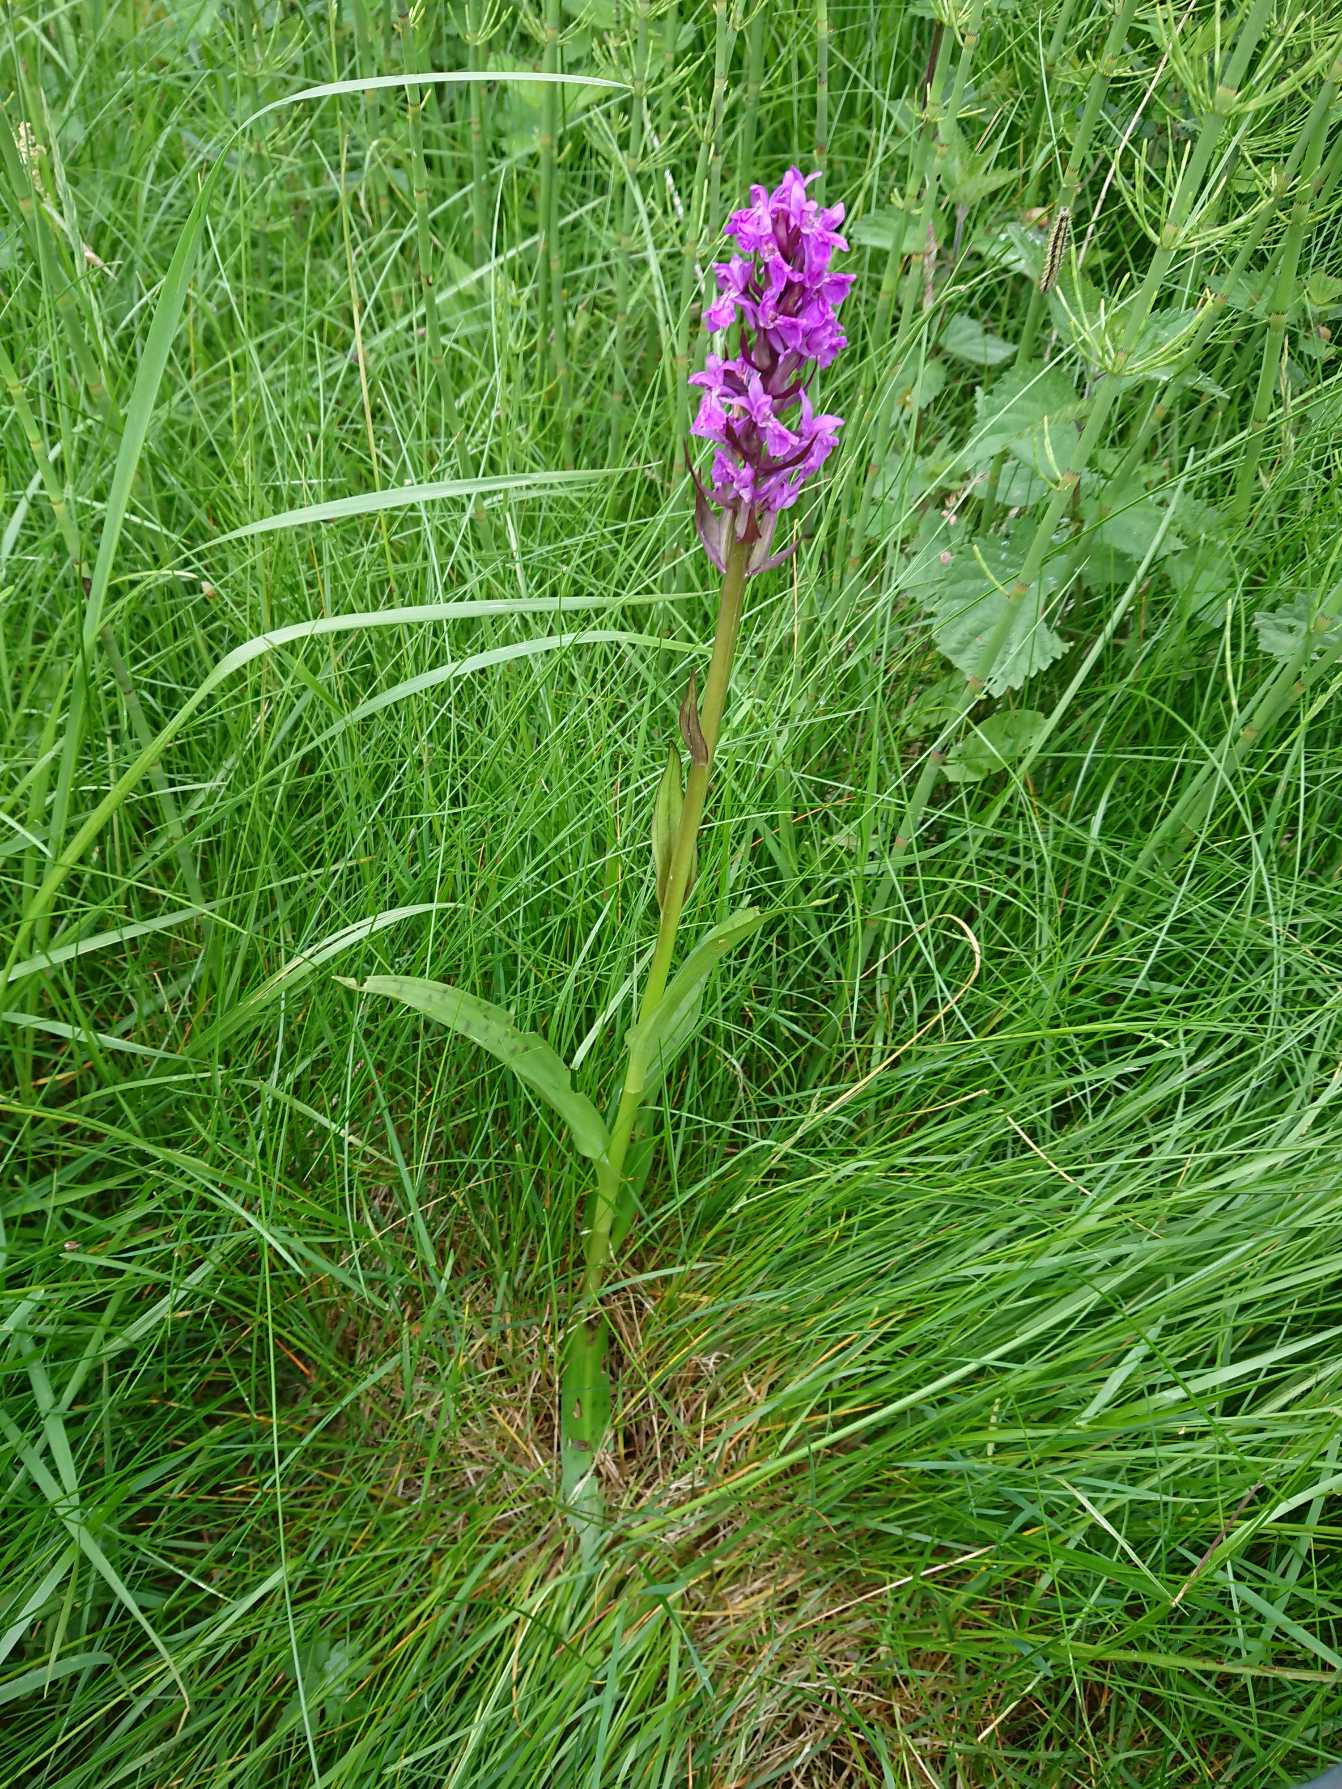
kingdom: Plantae
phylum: Tracheophyta
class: Liliopsida
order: Asparagales
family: Orchidaceae
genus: Dactylorhiza
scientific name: Dactylorhiza majalis
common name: Maj-gøgeurt
